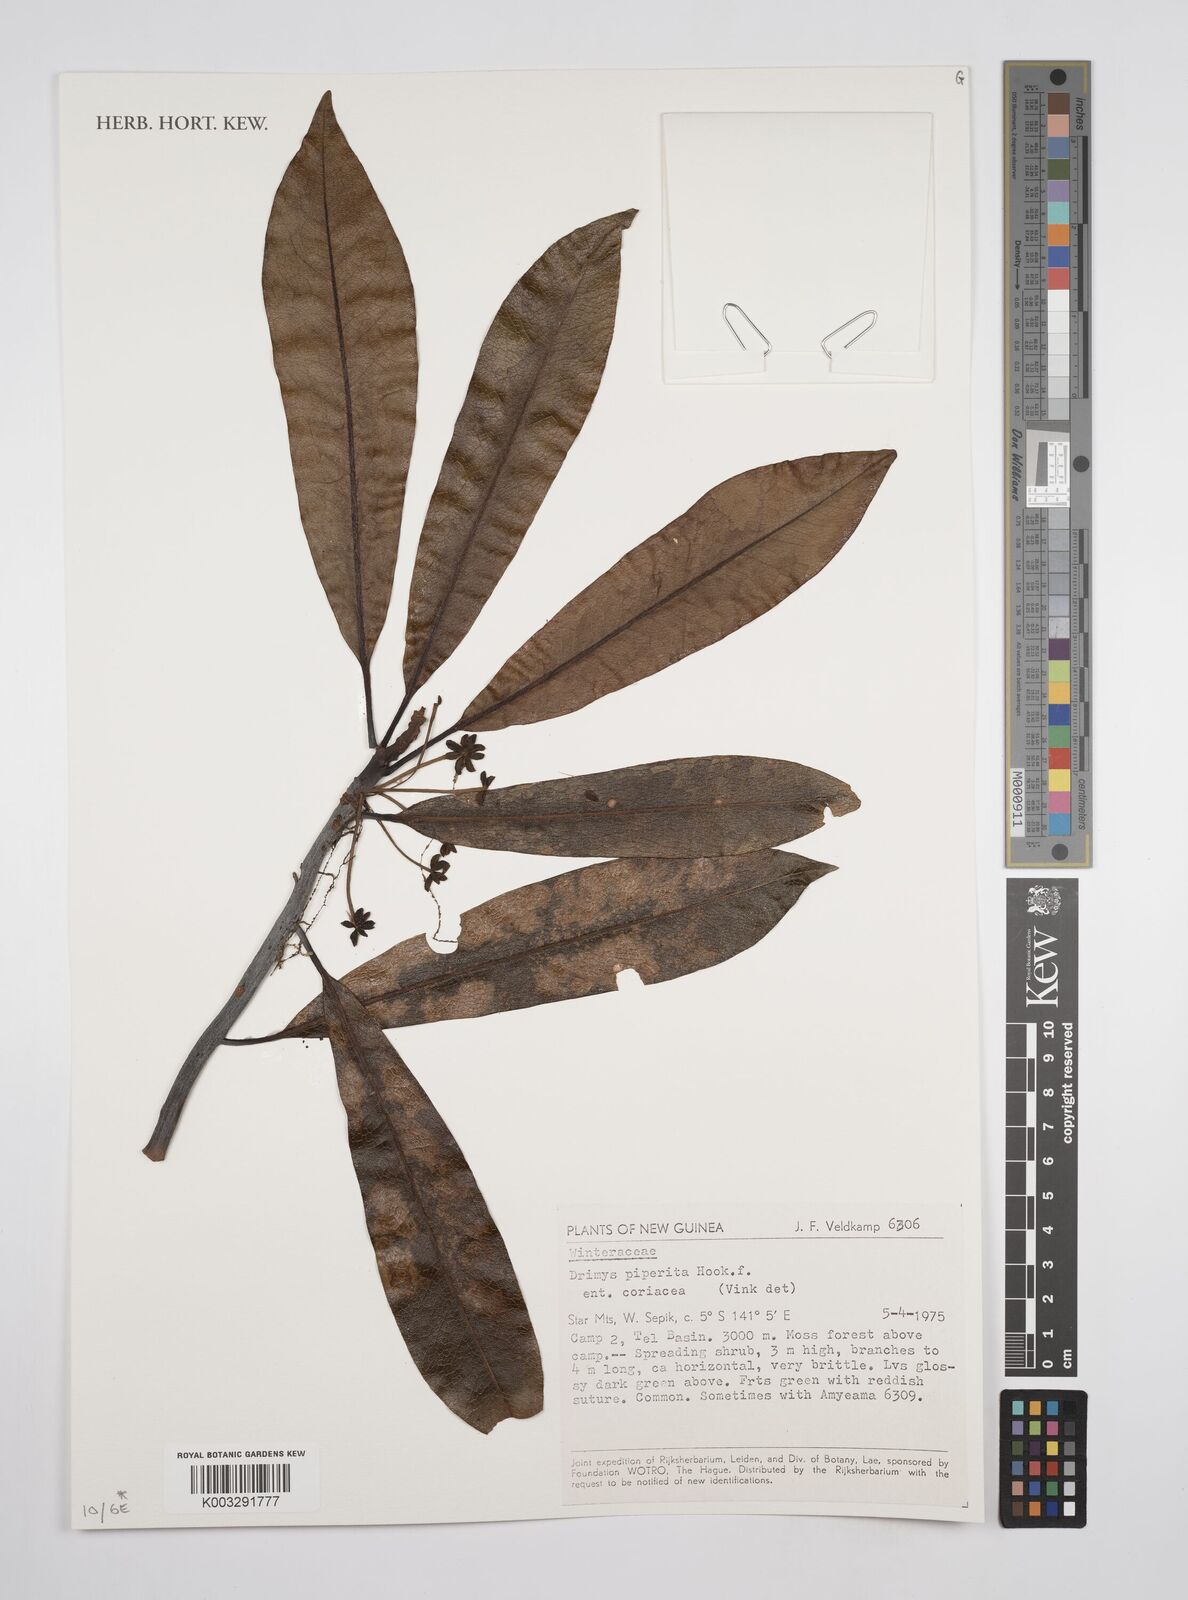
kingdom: Plantae
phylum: Tracheophyta
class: Magnoliopsida
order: Canellales
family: Winteraceae
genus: Drimys
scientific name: Drimys piperita
